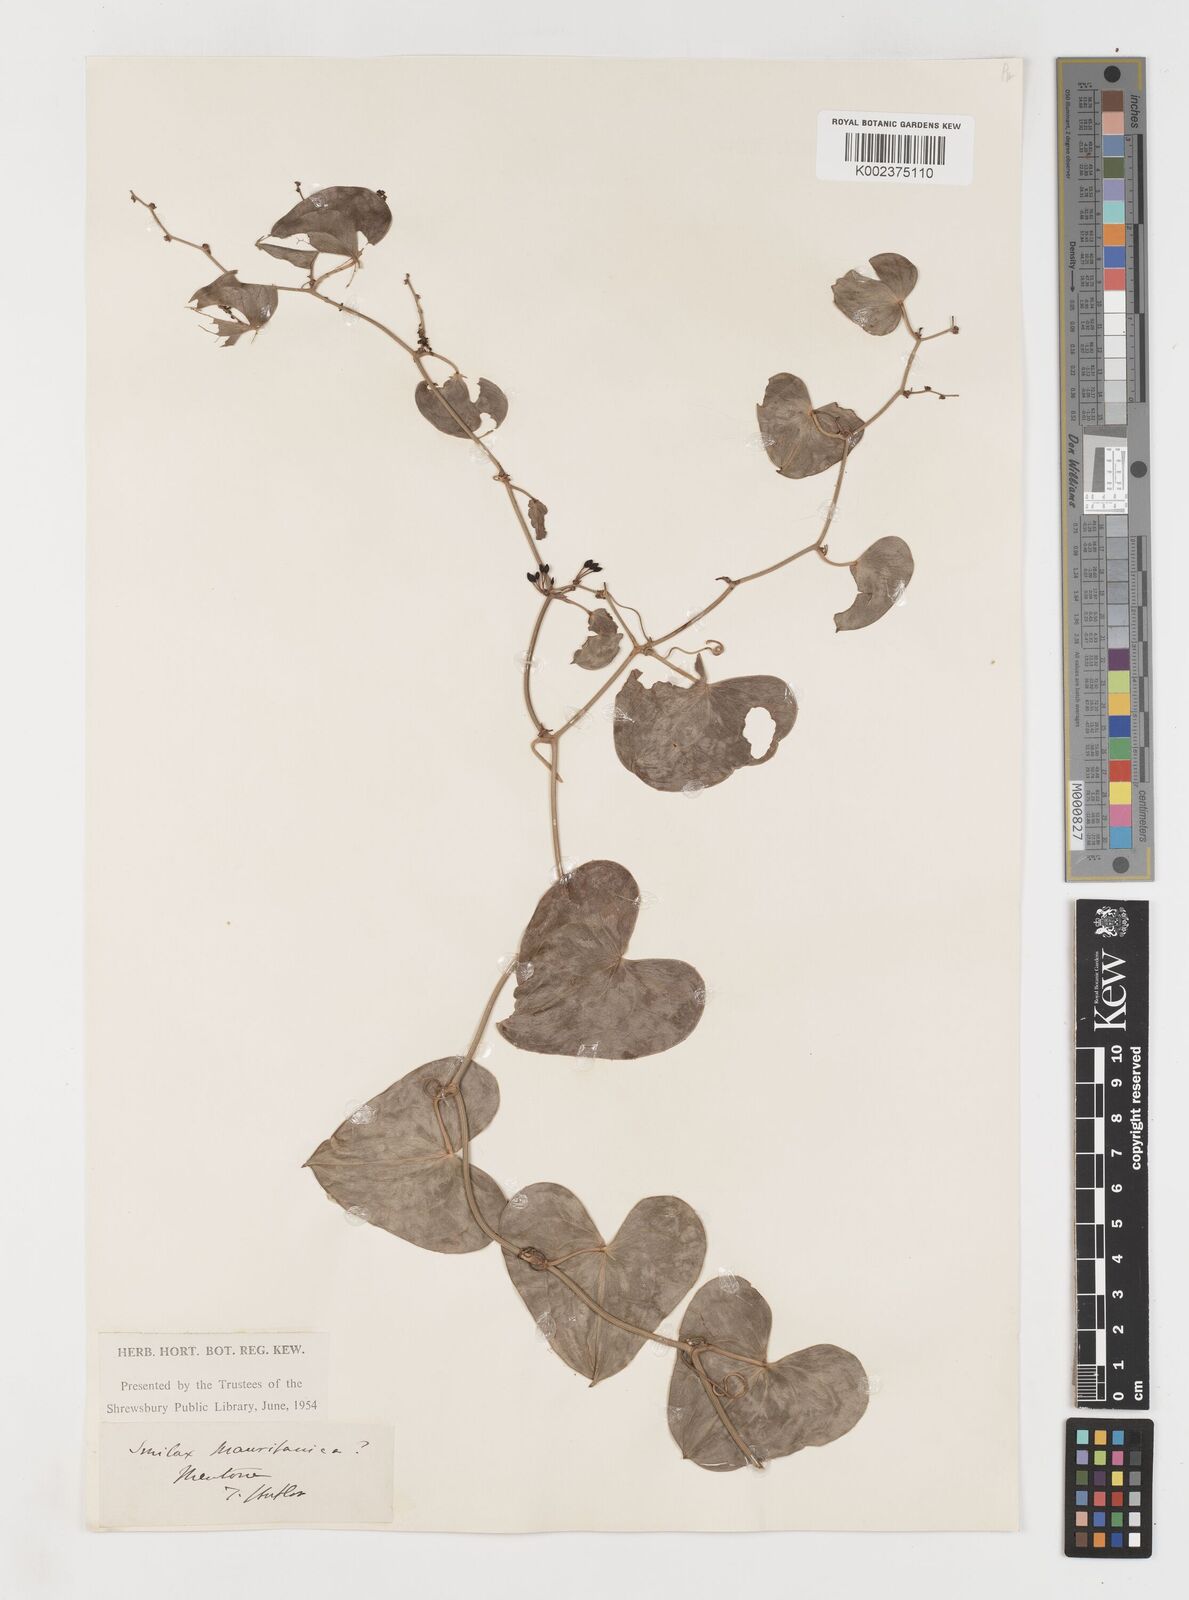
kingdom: Plantae
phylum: Tracheophyta
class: Liliopsida
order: Liliales
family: Smilacaceae
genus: Smilax
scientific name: Smilax aspera
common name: Common smilax
